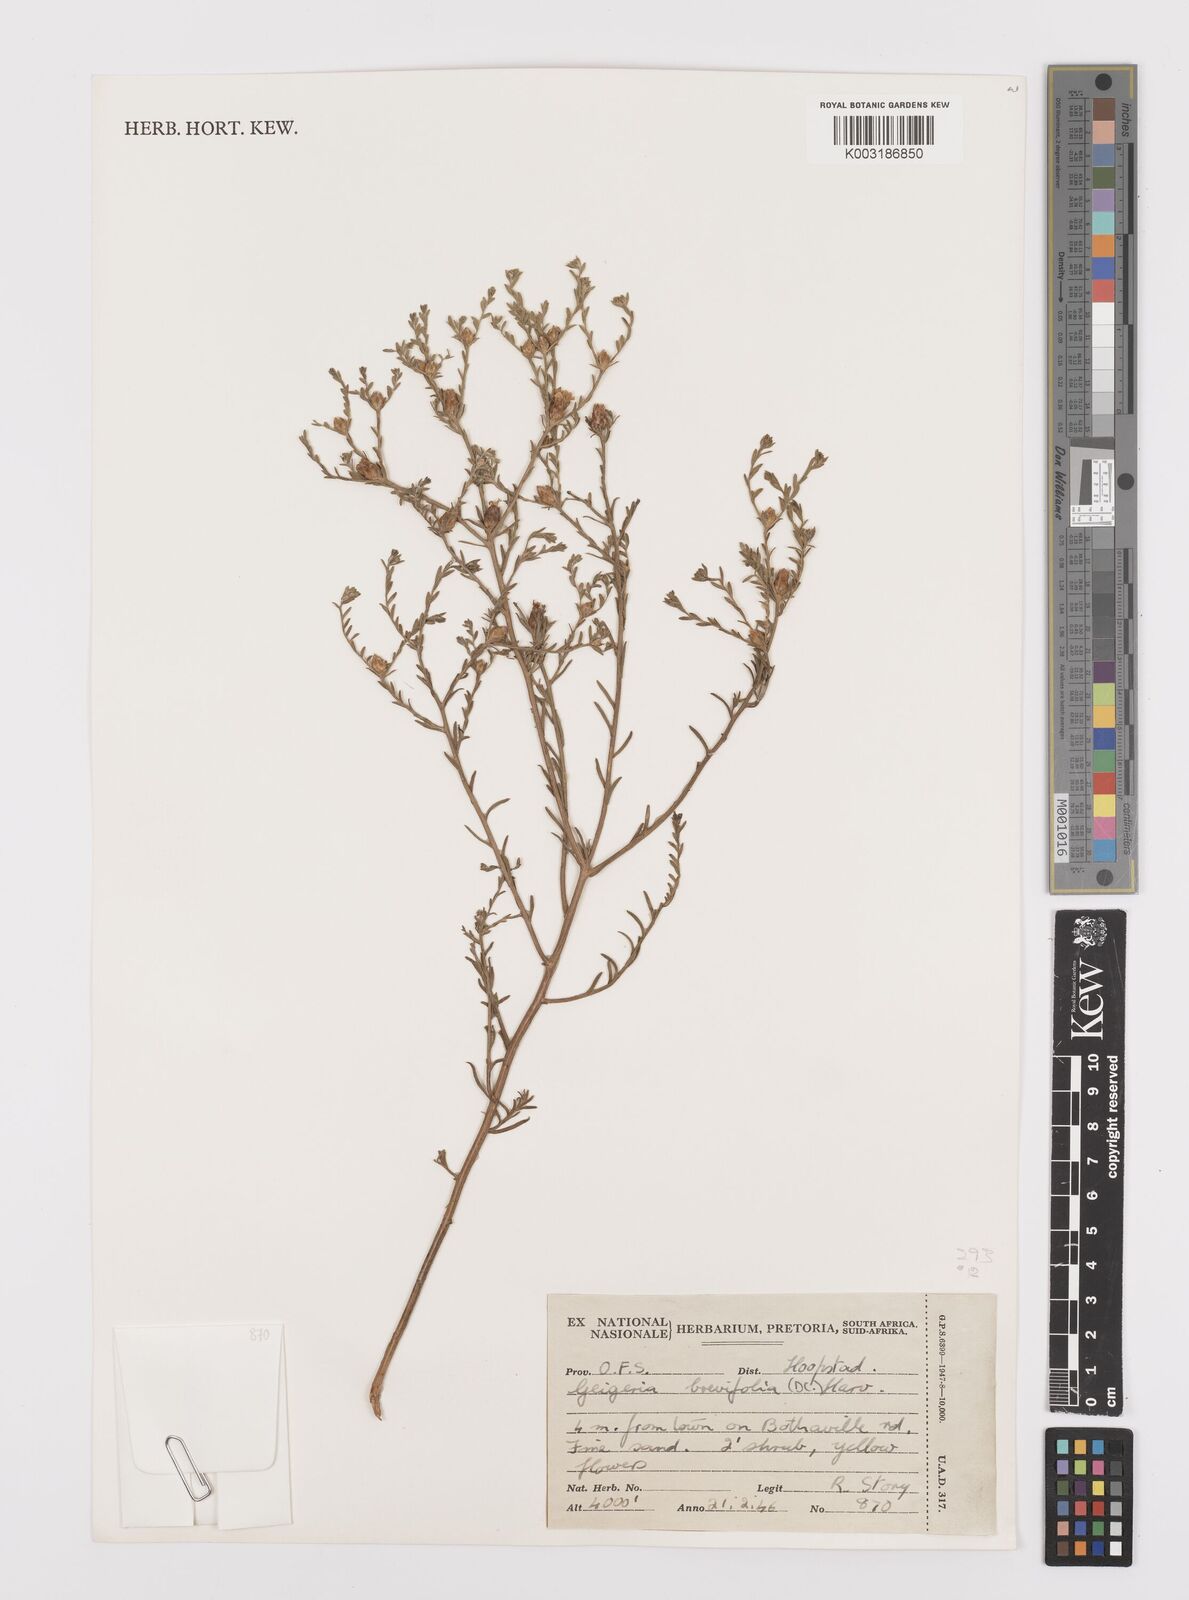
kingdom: Plantae
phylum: Tracheophyta
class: Magnoliopsida
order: Asterales
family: Asteraceae
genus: Geigeria
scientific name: Geigeria brevifolia
